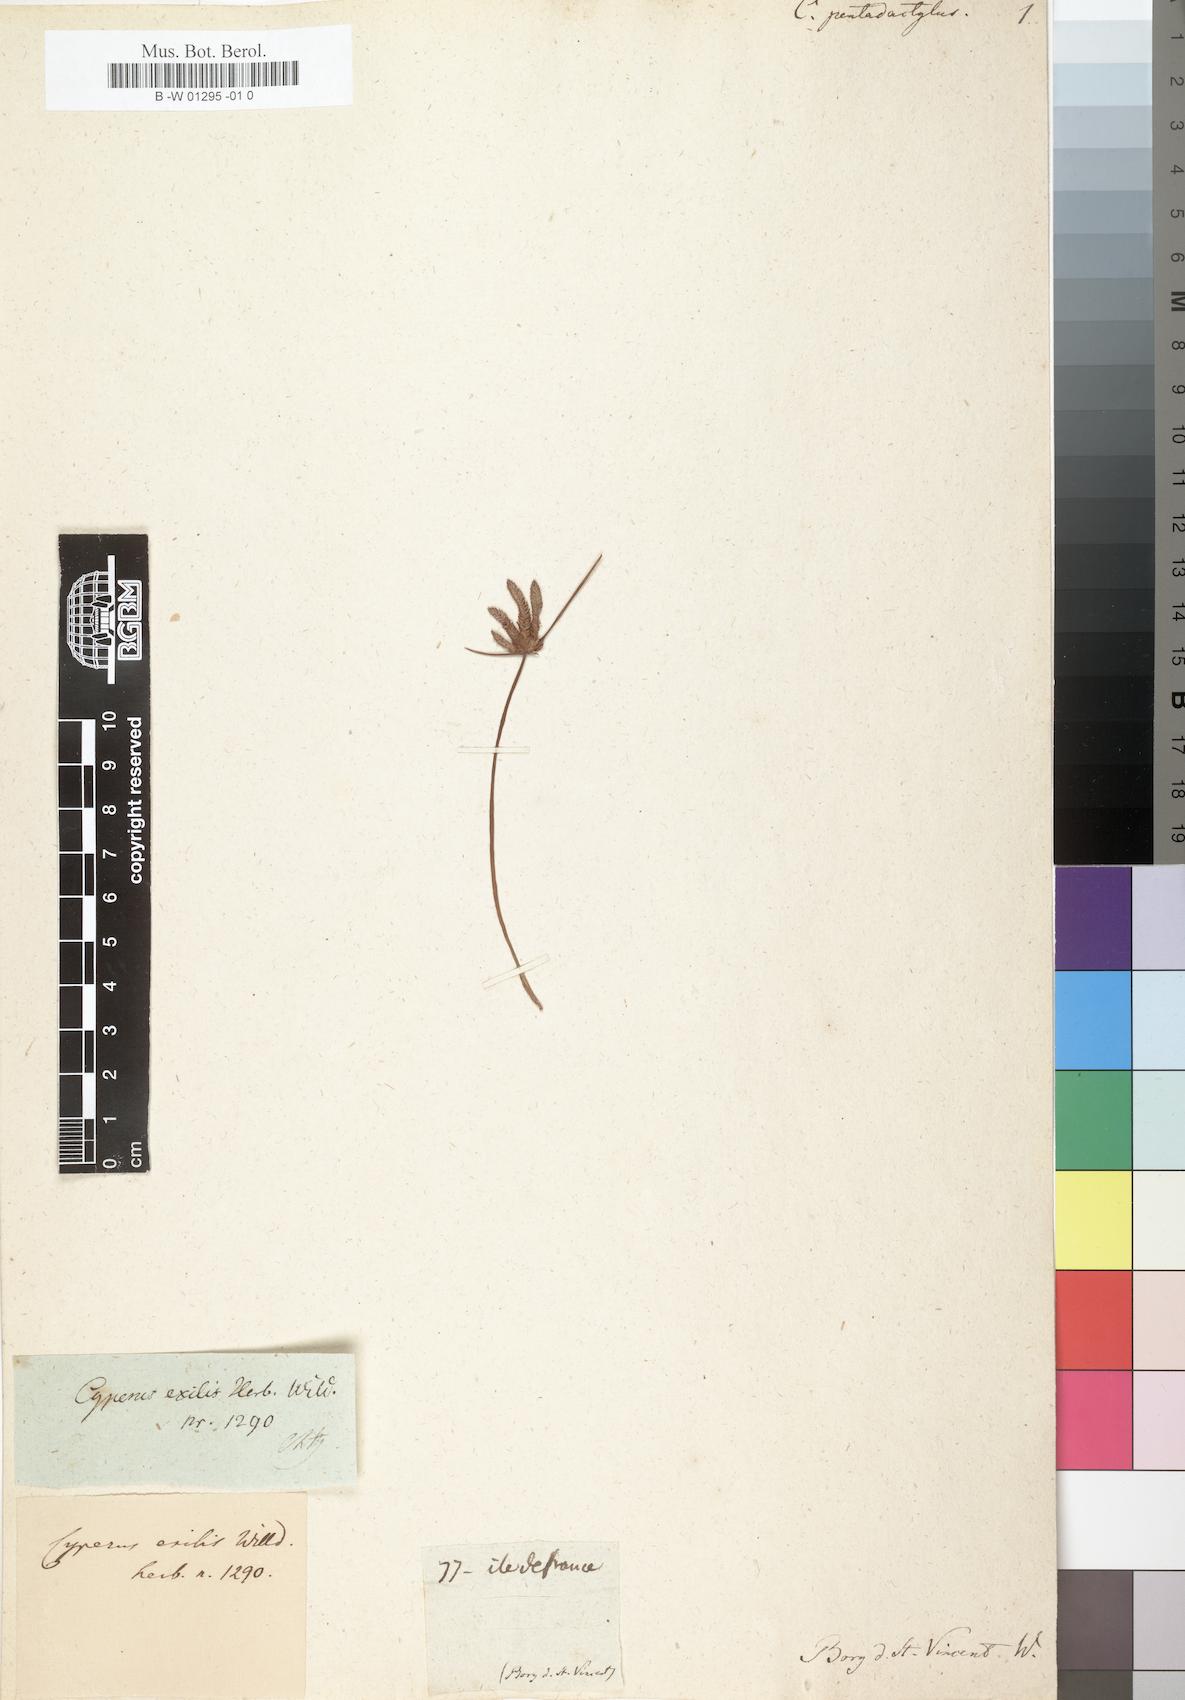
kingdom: Plantae
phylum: Tracheophyta
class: Liliopsida
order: Poales
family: Cyperaceae
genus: Cyperus
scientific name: Cyperus pentadactylus
